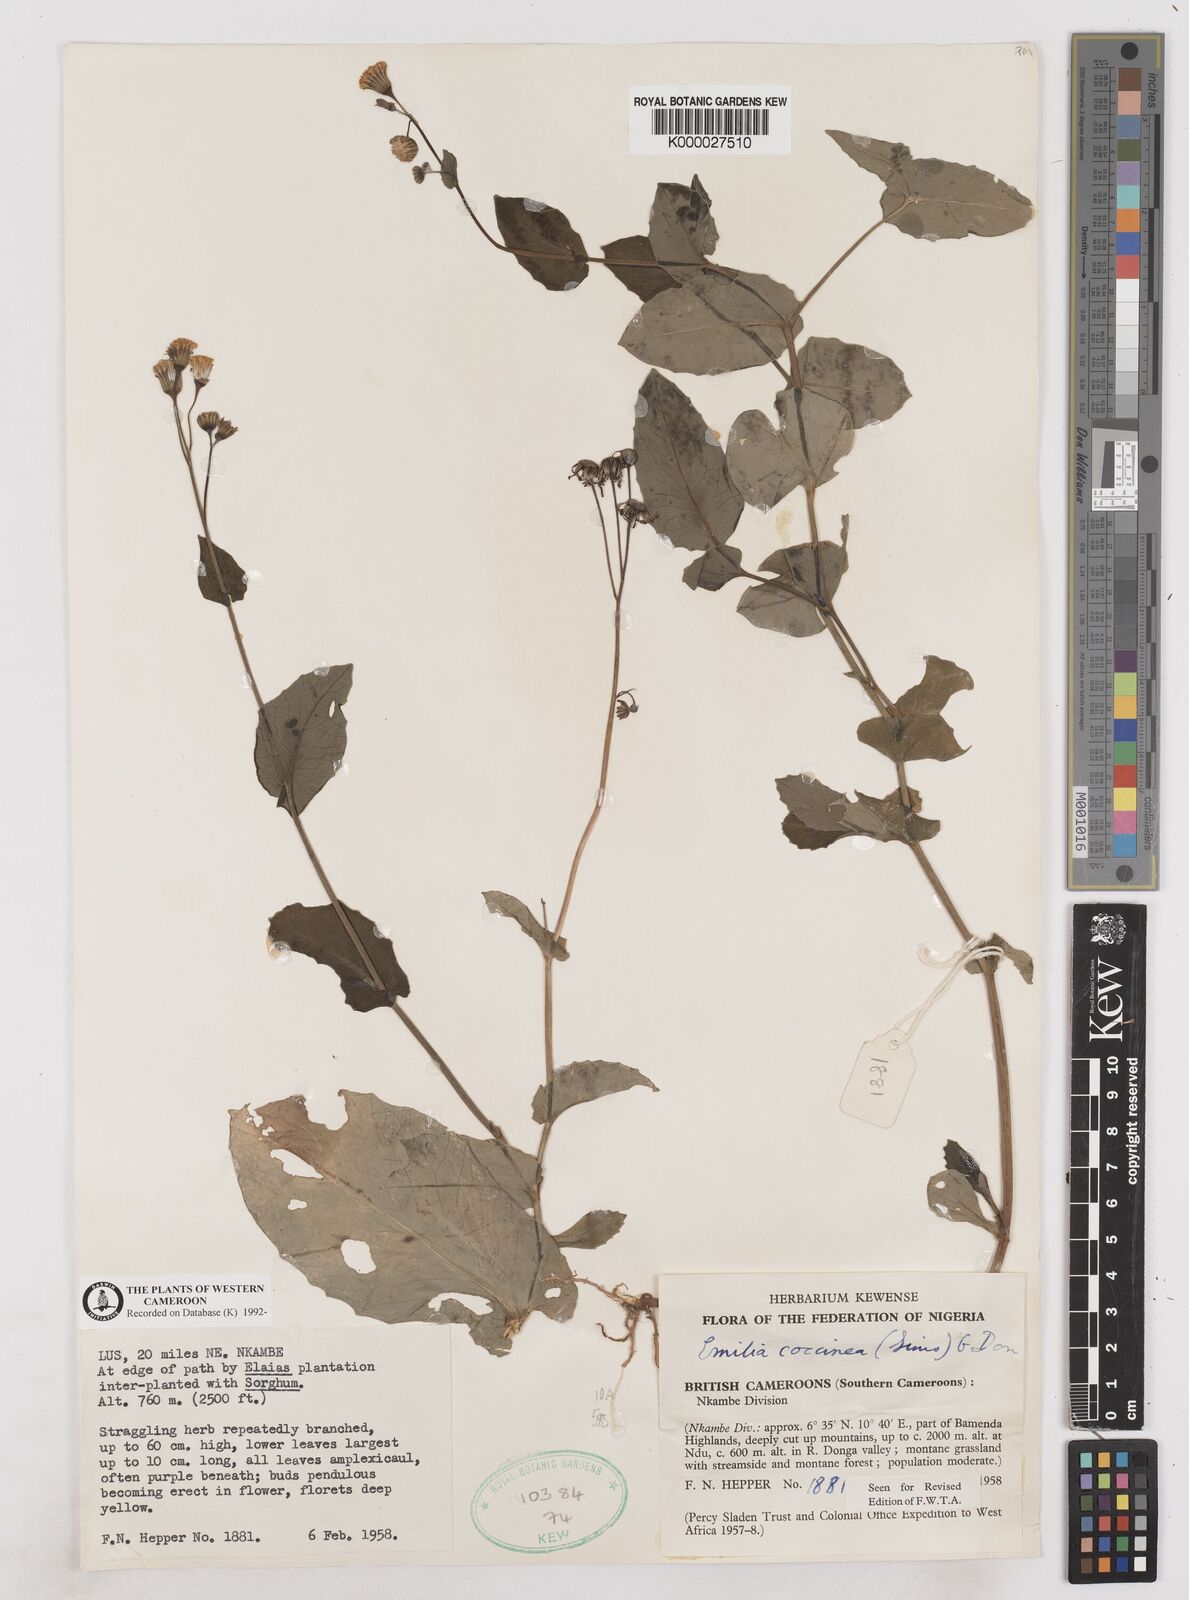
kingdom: Plantae
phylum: Tracheophyta
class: Magnoliopsida
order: Asterales
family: Asteraceae
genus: Emilia
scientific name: Emilia lisowskiana
